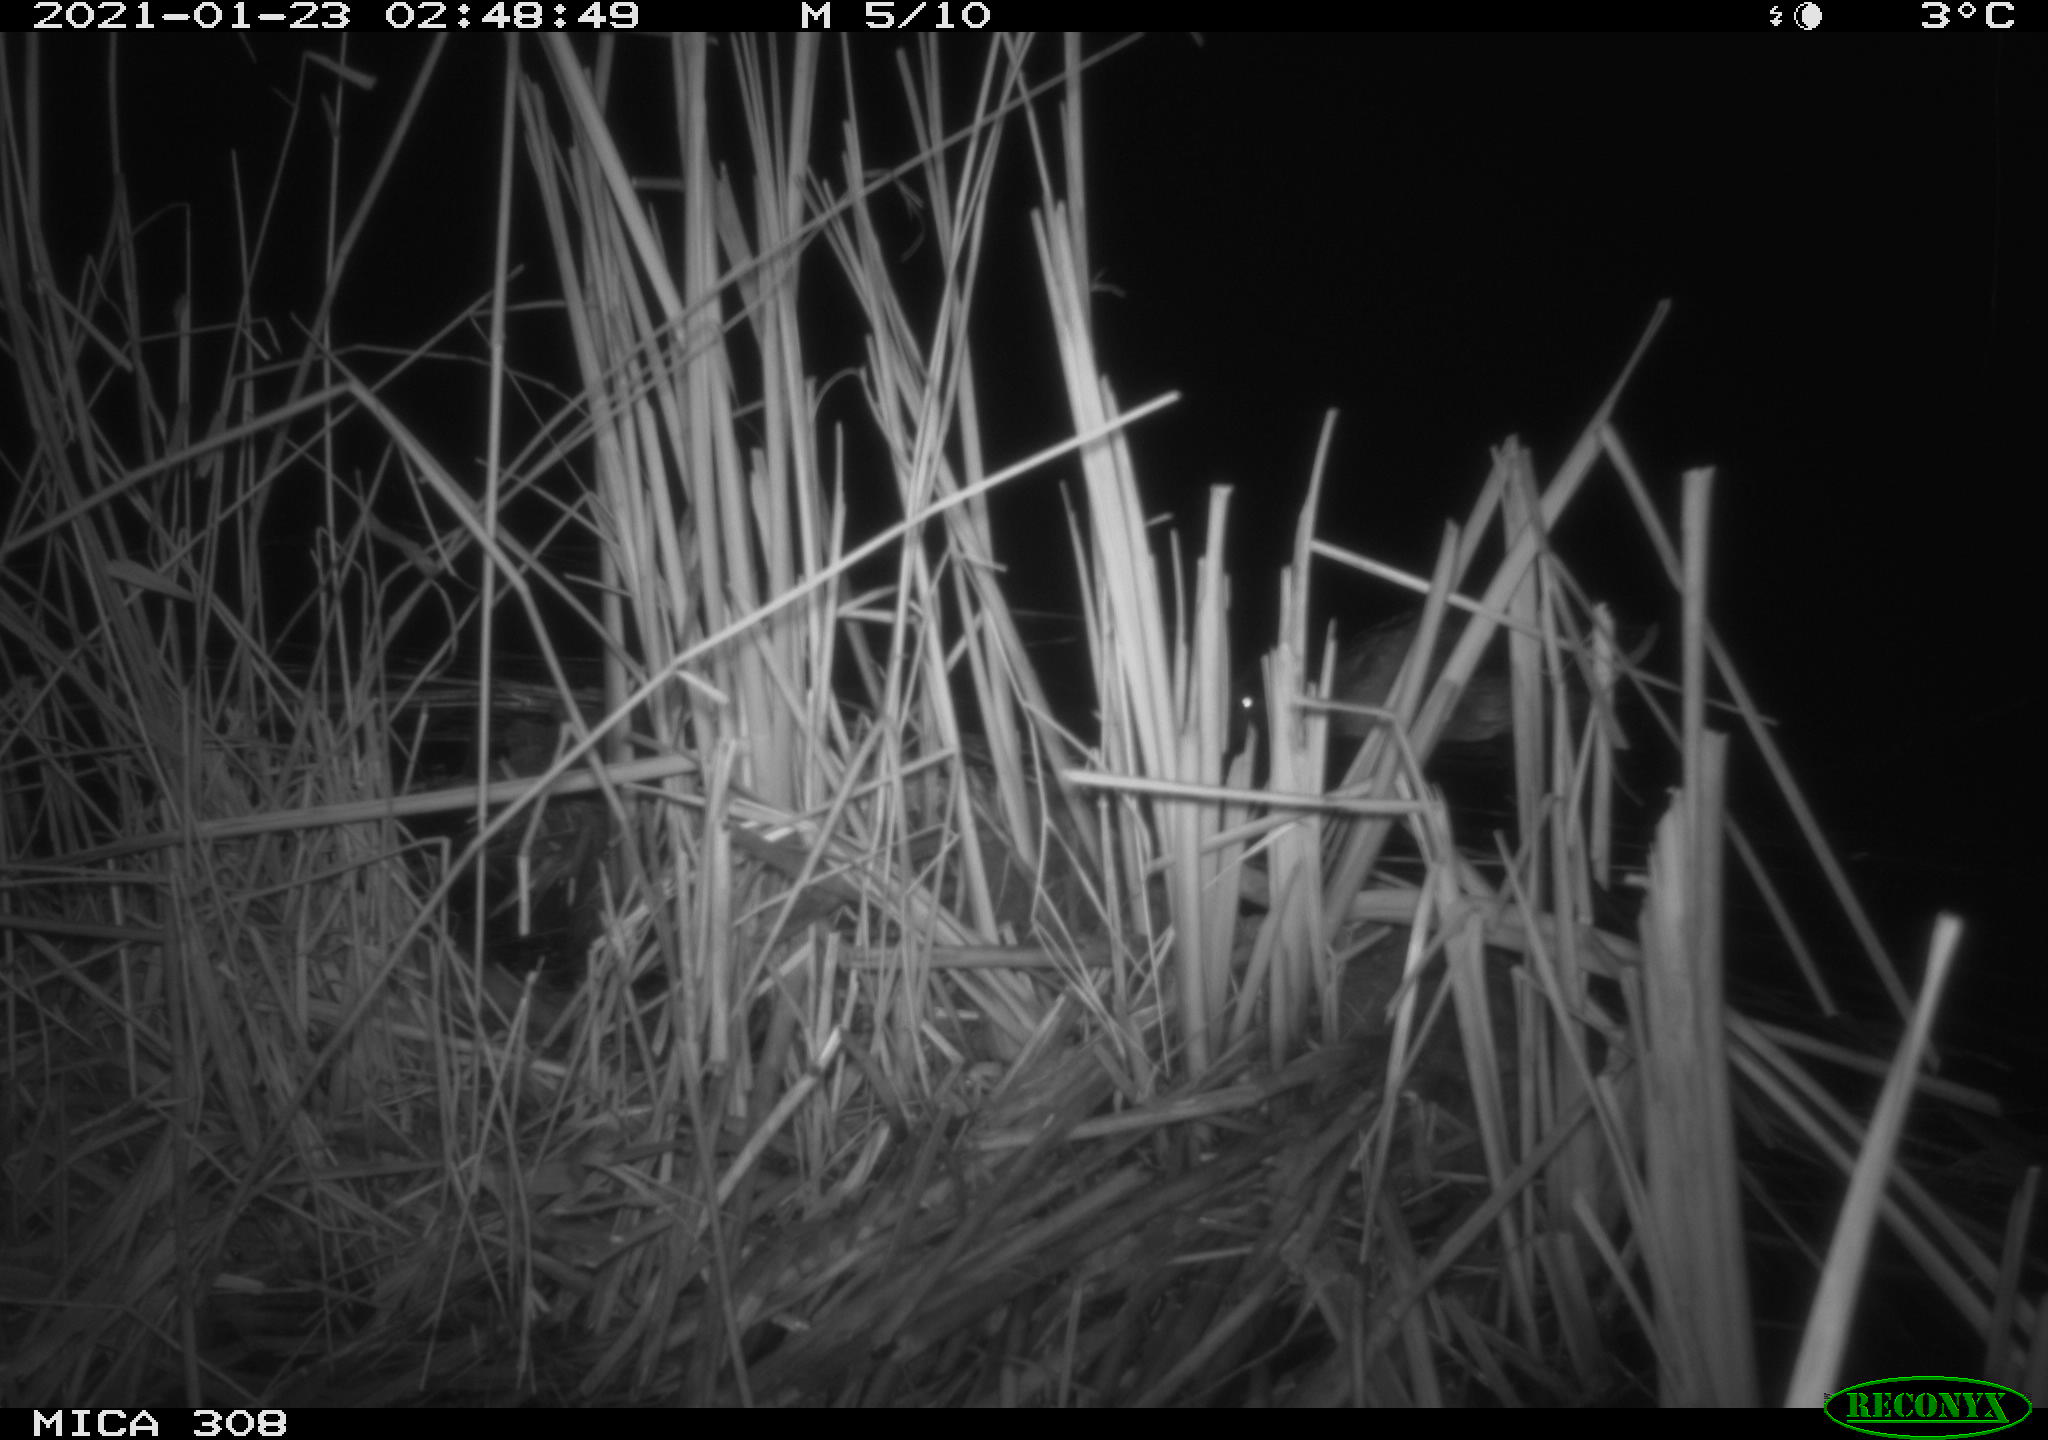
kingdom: Animalia
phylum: Chordata
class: Aves
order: Anseriformes
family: Anatidae
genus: Anas
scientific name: Anas platyrhynchos
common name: Mallard
